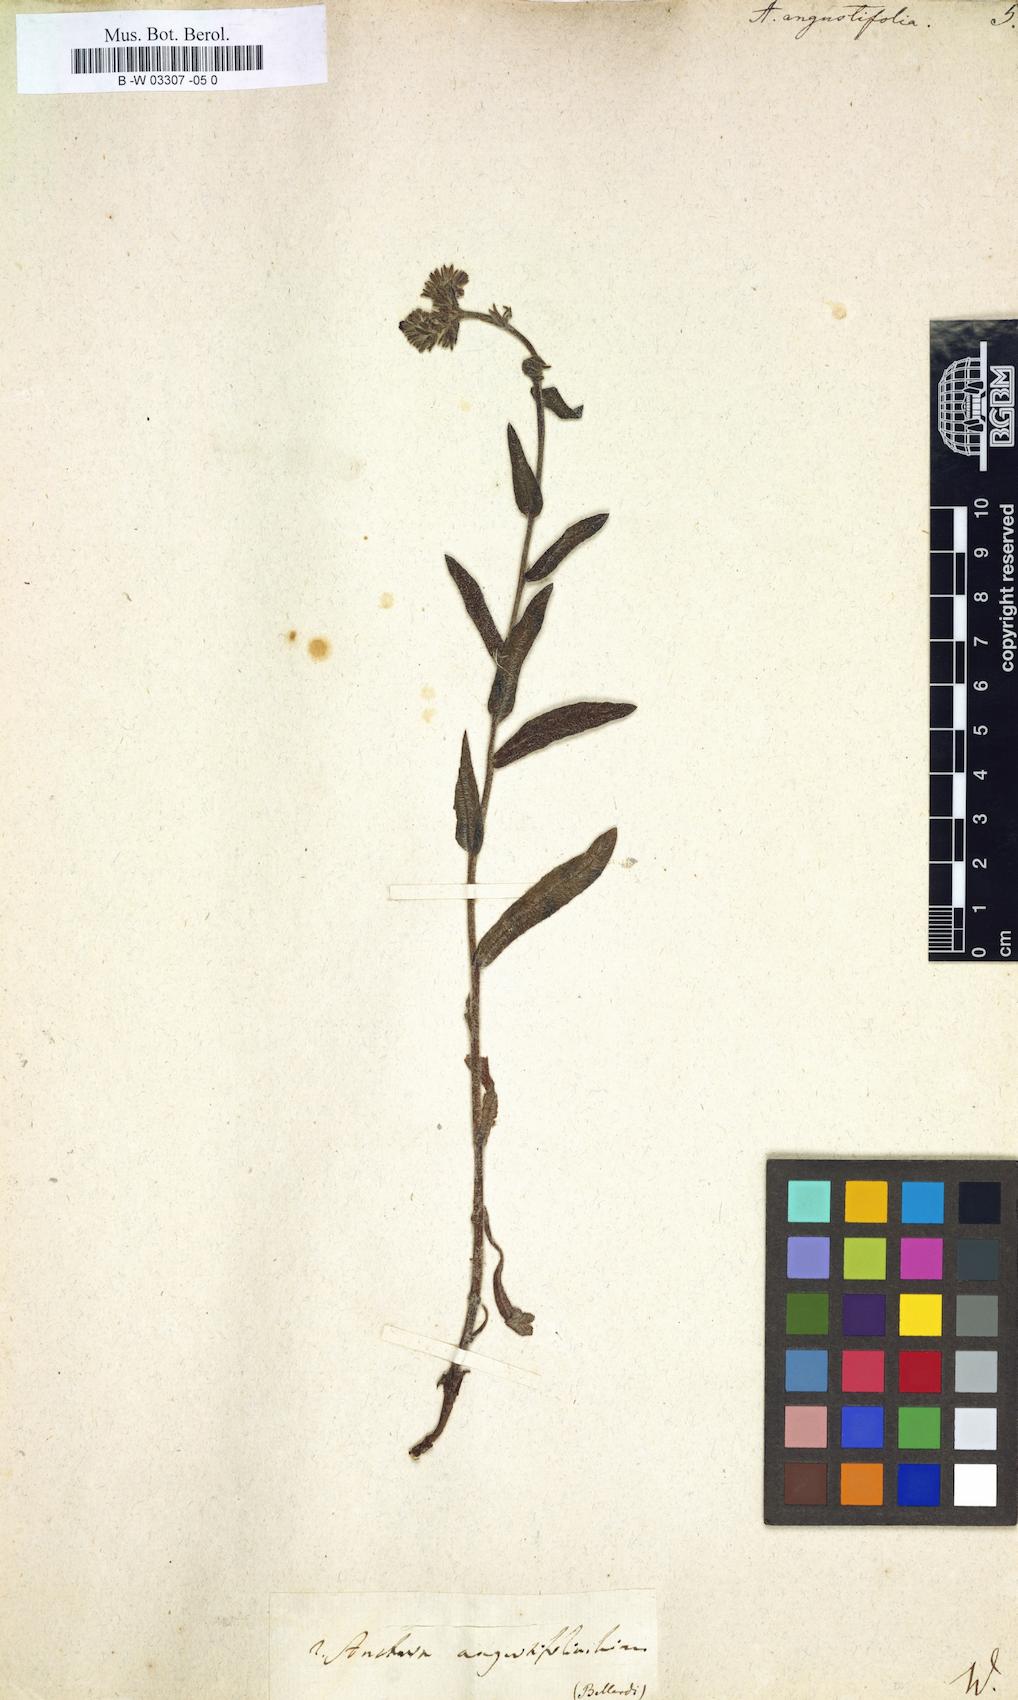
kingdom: Plantae
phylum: Tracheophyta
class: Magnoliopsida
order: Boraginales
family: Boraginaceae
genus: Anchusa
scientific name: Anchusa officinalis
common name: Alkanet
